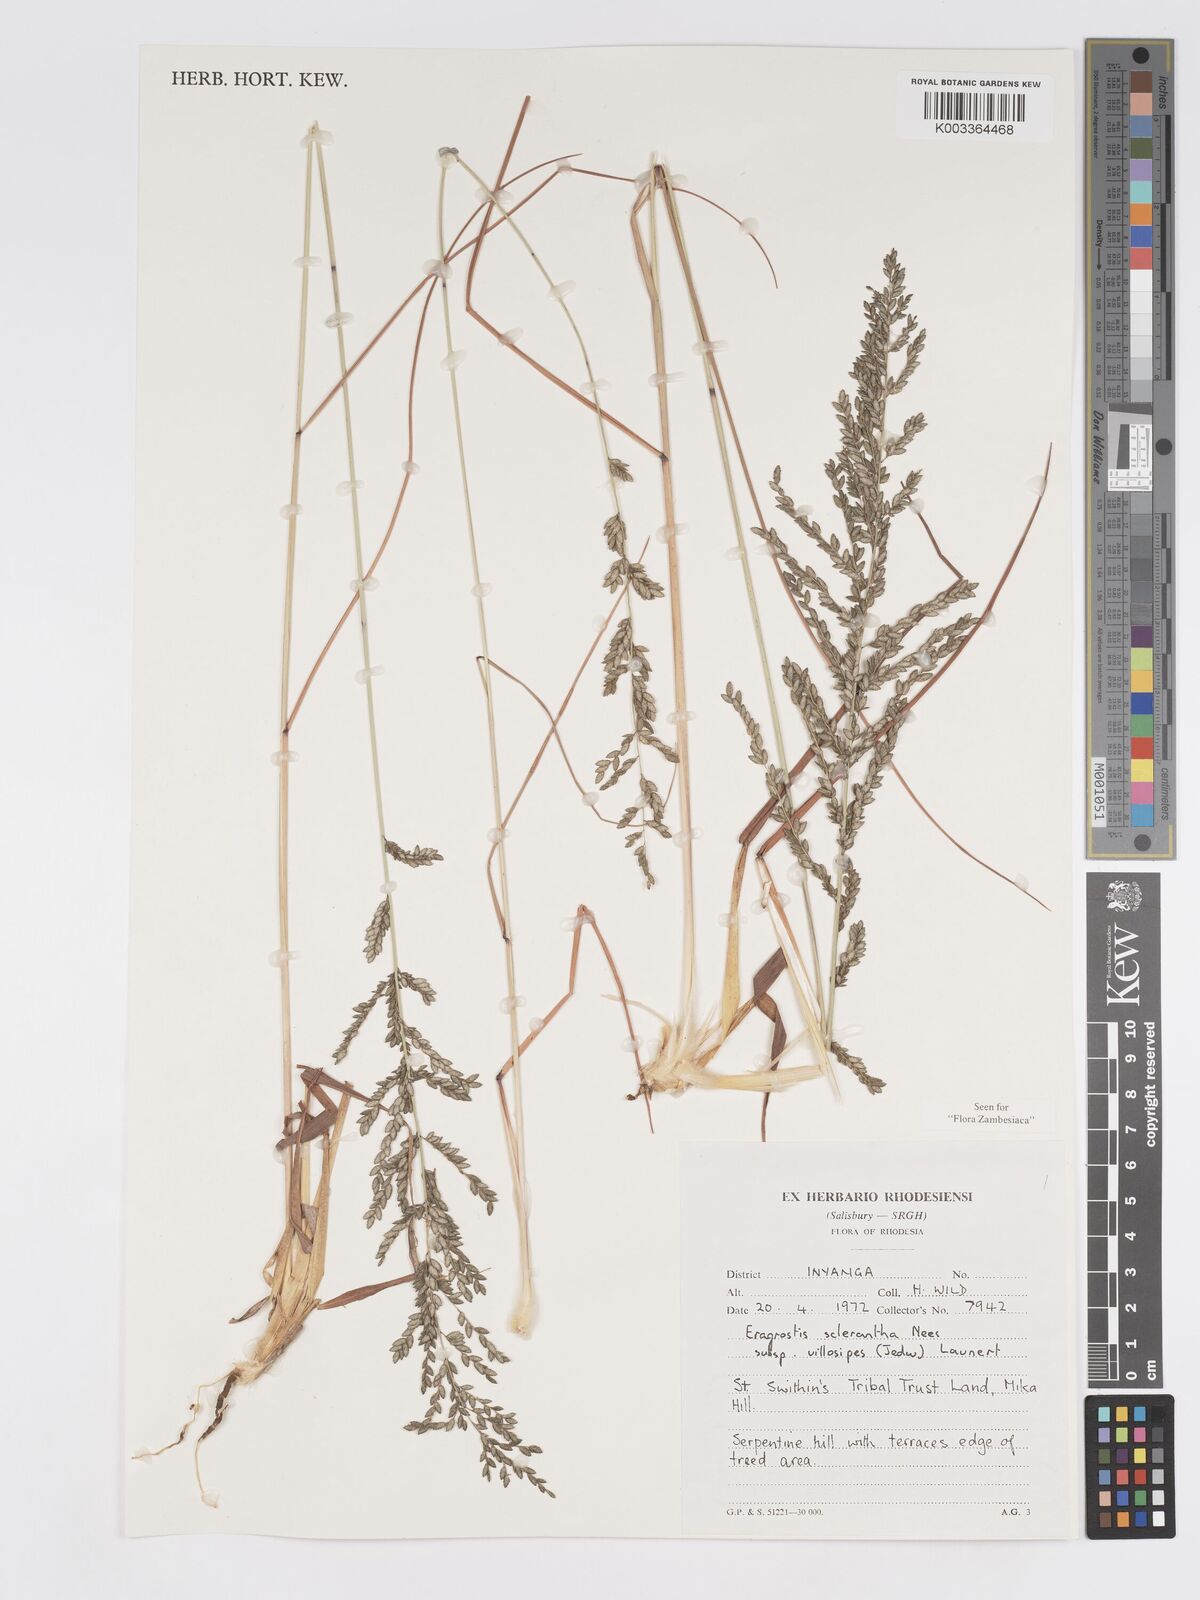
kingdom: Plantae
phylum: Tracheophyta
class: Liliopsida
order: Poales
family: Poaceae
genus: Eragrostis
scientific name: Eragrostis sclerantha
